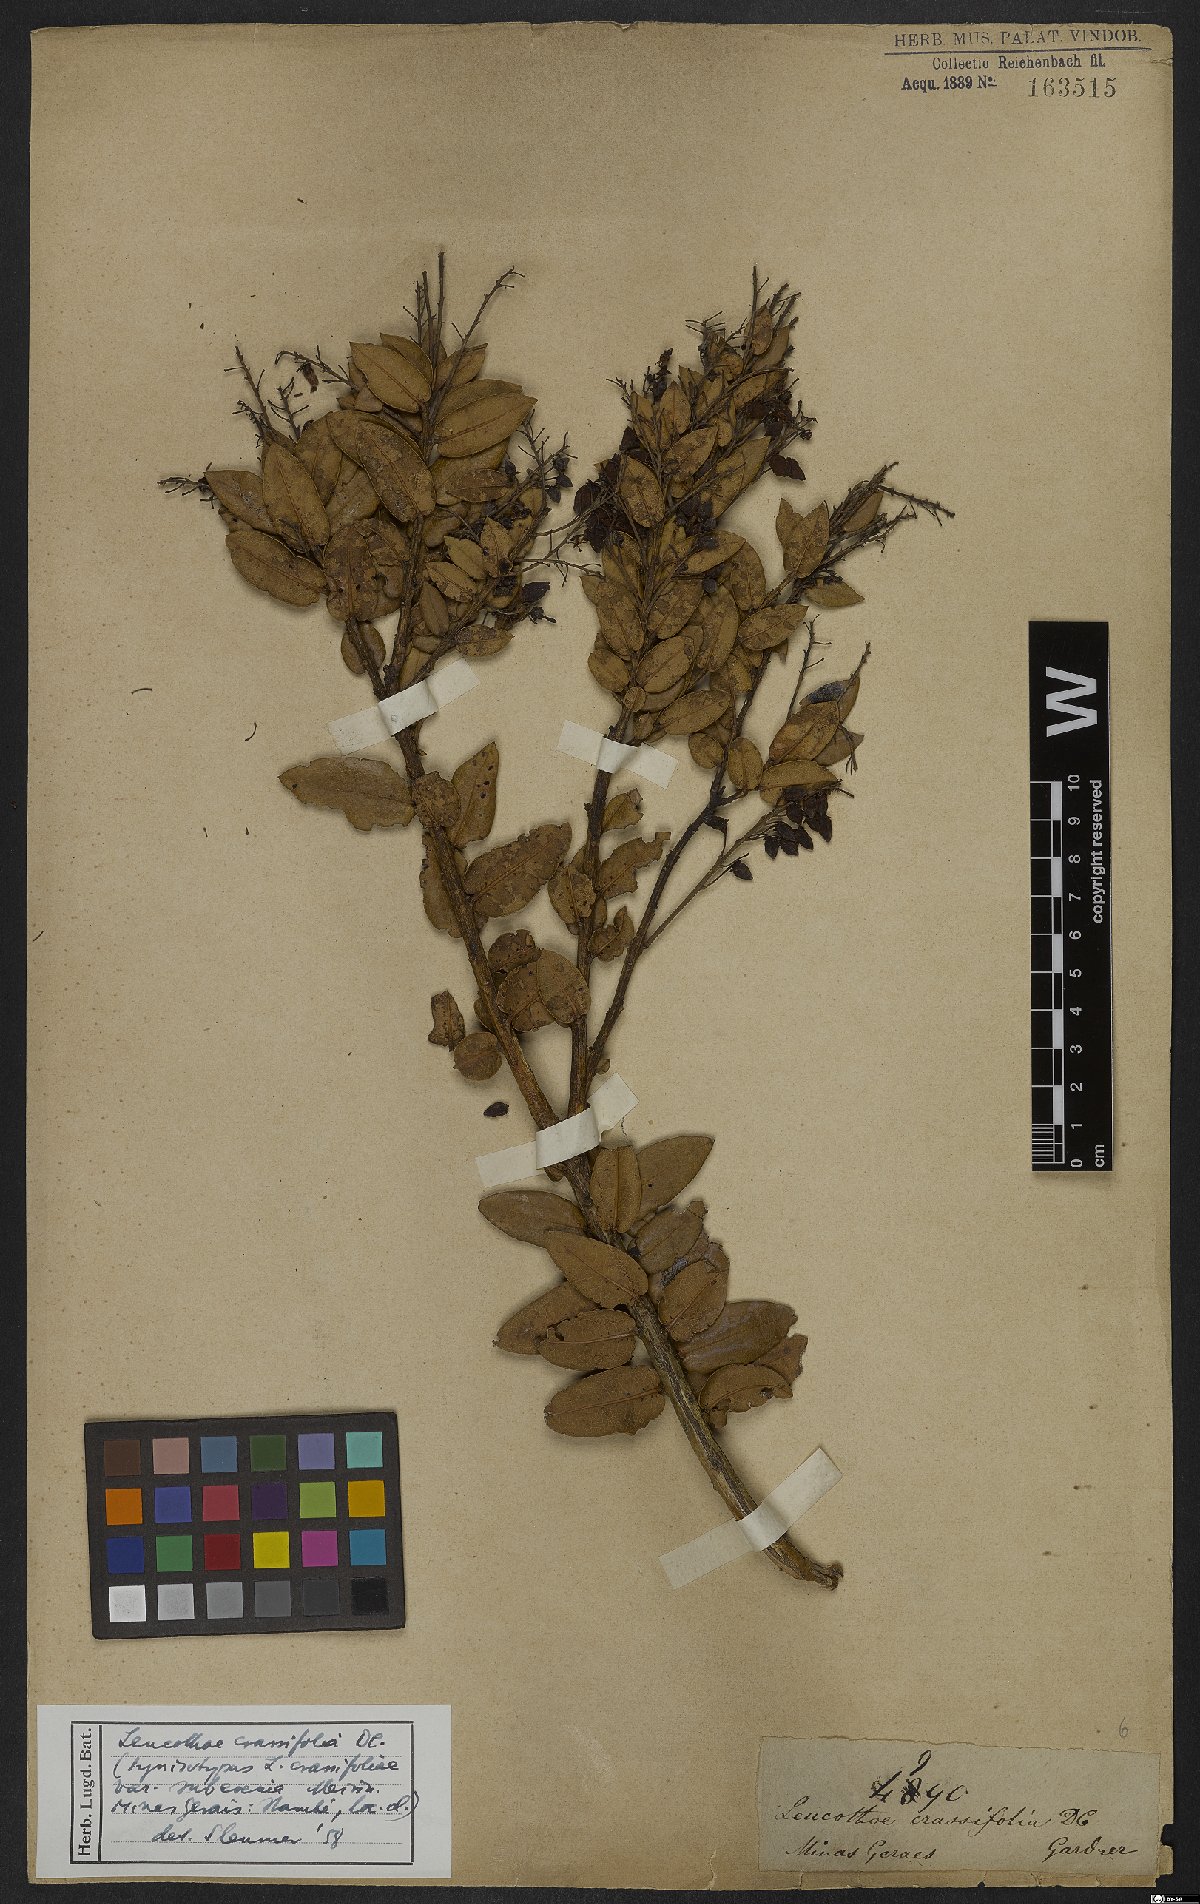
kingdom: Plantae
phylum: Tracheophyta
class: Magnoliopsida
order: Ericales
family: Ericaceae
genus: Agarista
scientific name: Agarista coriifolia
